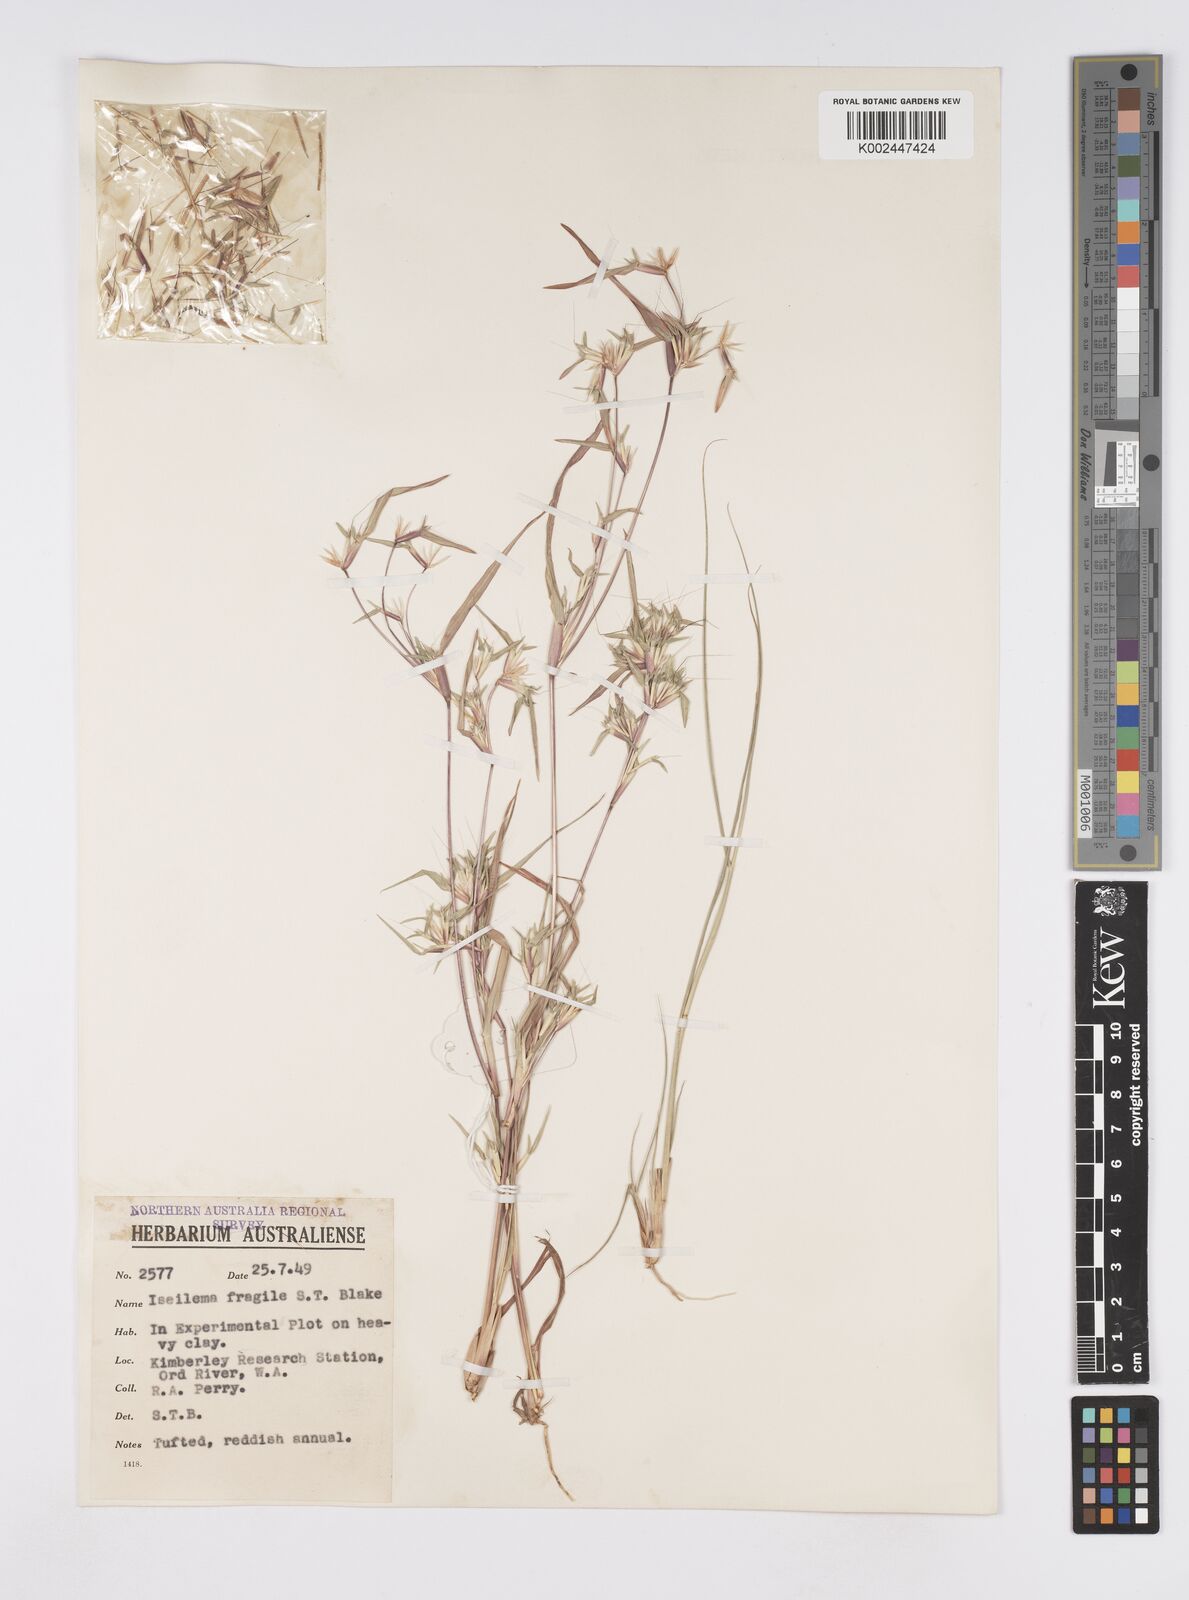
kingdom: Plantae
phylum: Tracheophyta
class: Liliopsida
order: Poales
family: Poaceae
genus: Iseilema
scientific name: Iseilema fragile
